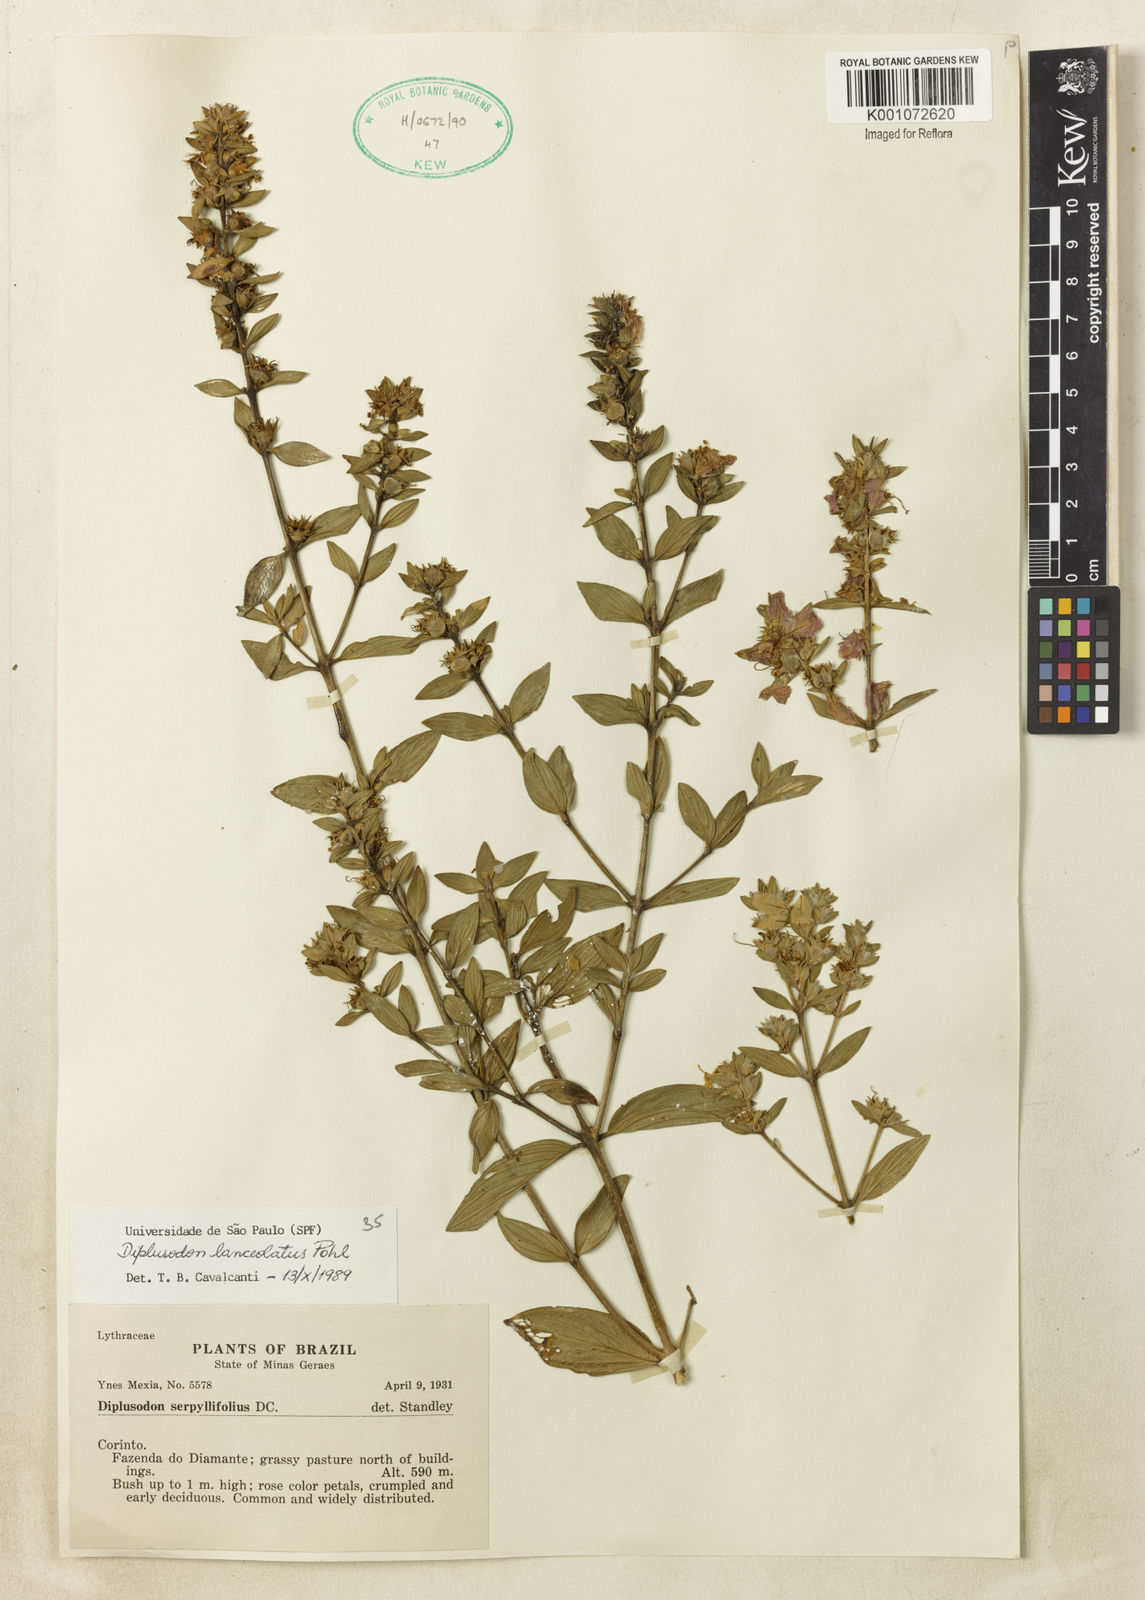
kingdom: Plantae
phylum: Tracheophyta
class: Magnoliopsida
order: Myrtales
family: Lythraceae
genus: Diplusodon
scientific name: Diplusodon lanceolatus
